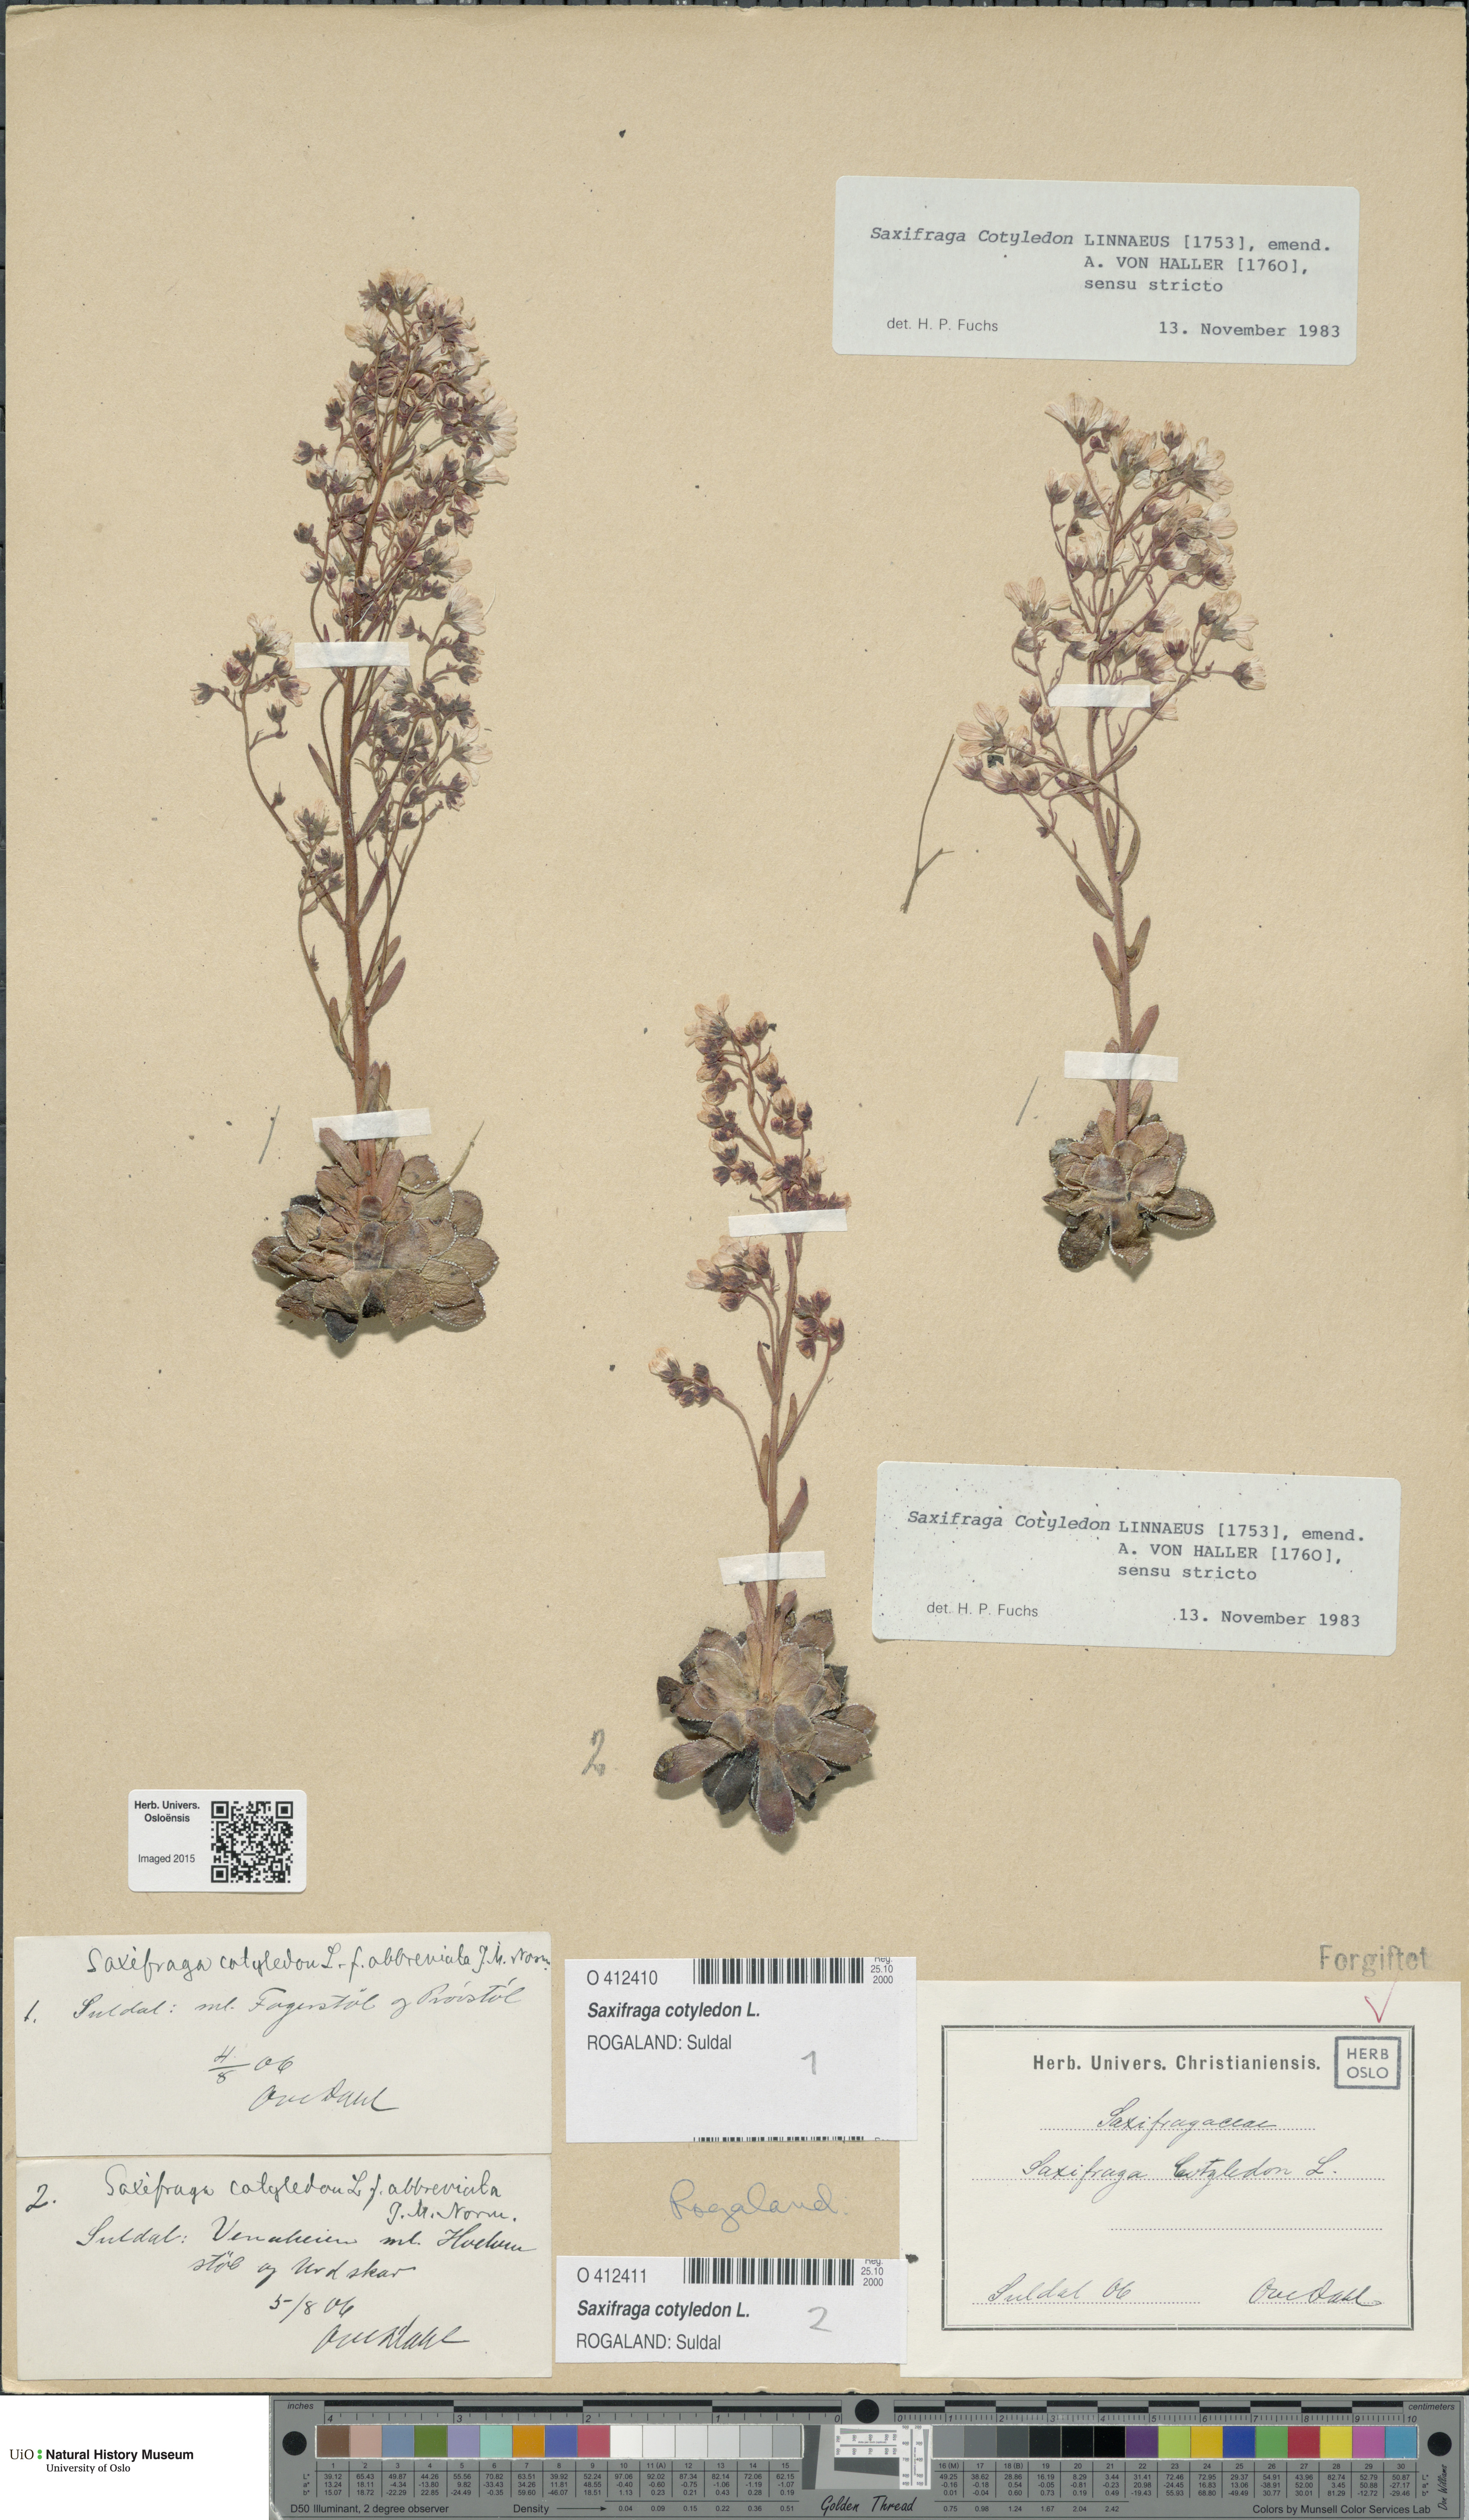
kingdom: Plantae
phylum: Tracheophyta
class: Magnoliopsida
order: Saxifragales
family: Saxifragaceae
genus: Saxifraga
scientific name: Saxifraga cotyledon
